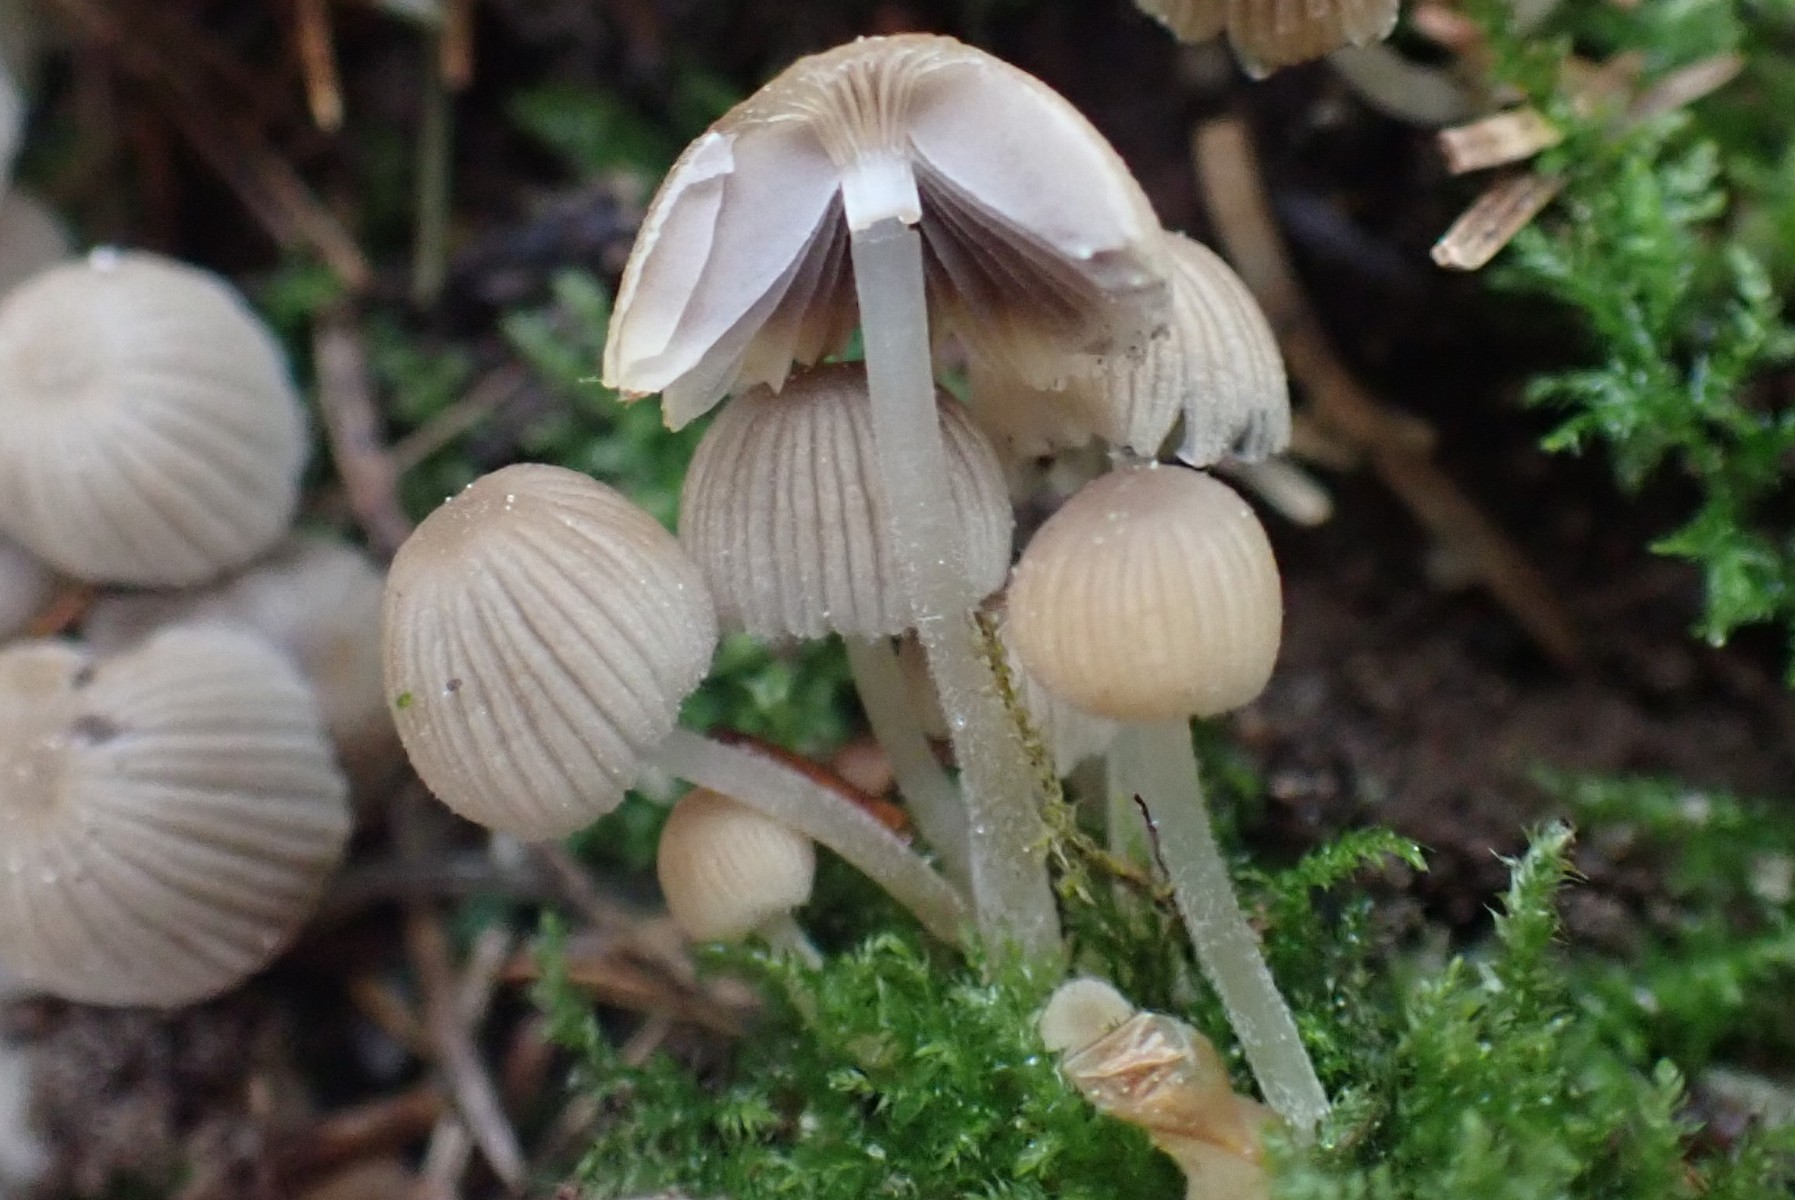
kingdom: Fungi
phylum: Basidiomycota
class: Agaricomycetes
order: Agaricales
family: Psathyrellaceae
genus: Coprinellus
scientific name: Coprinellus disseminatus
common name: bredsået blækhat
